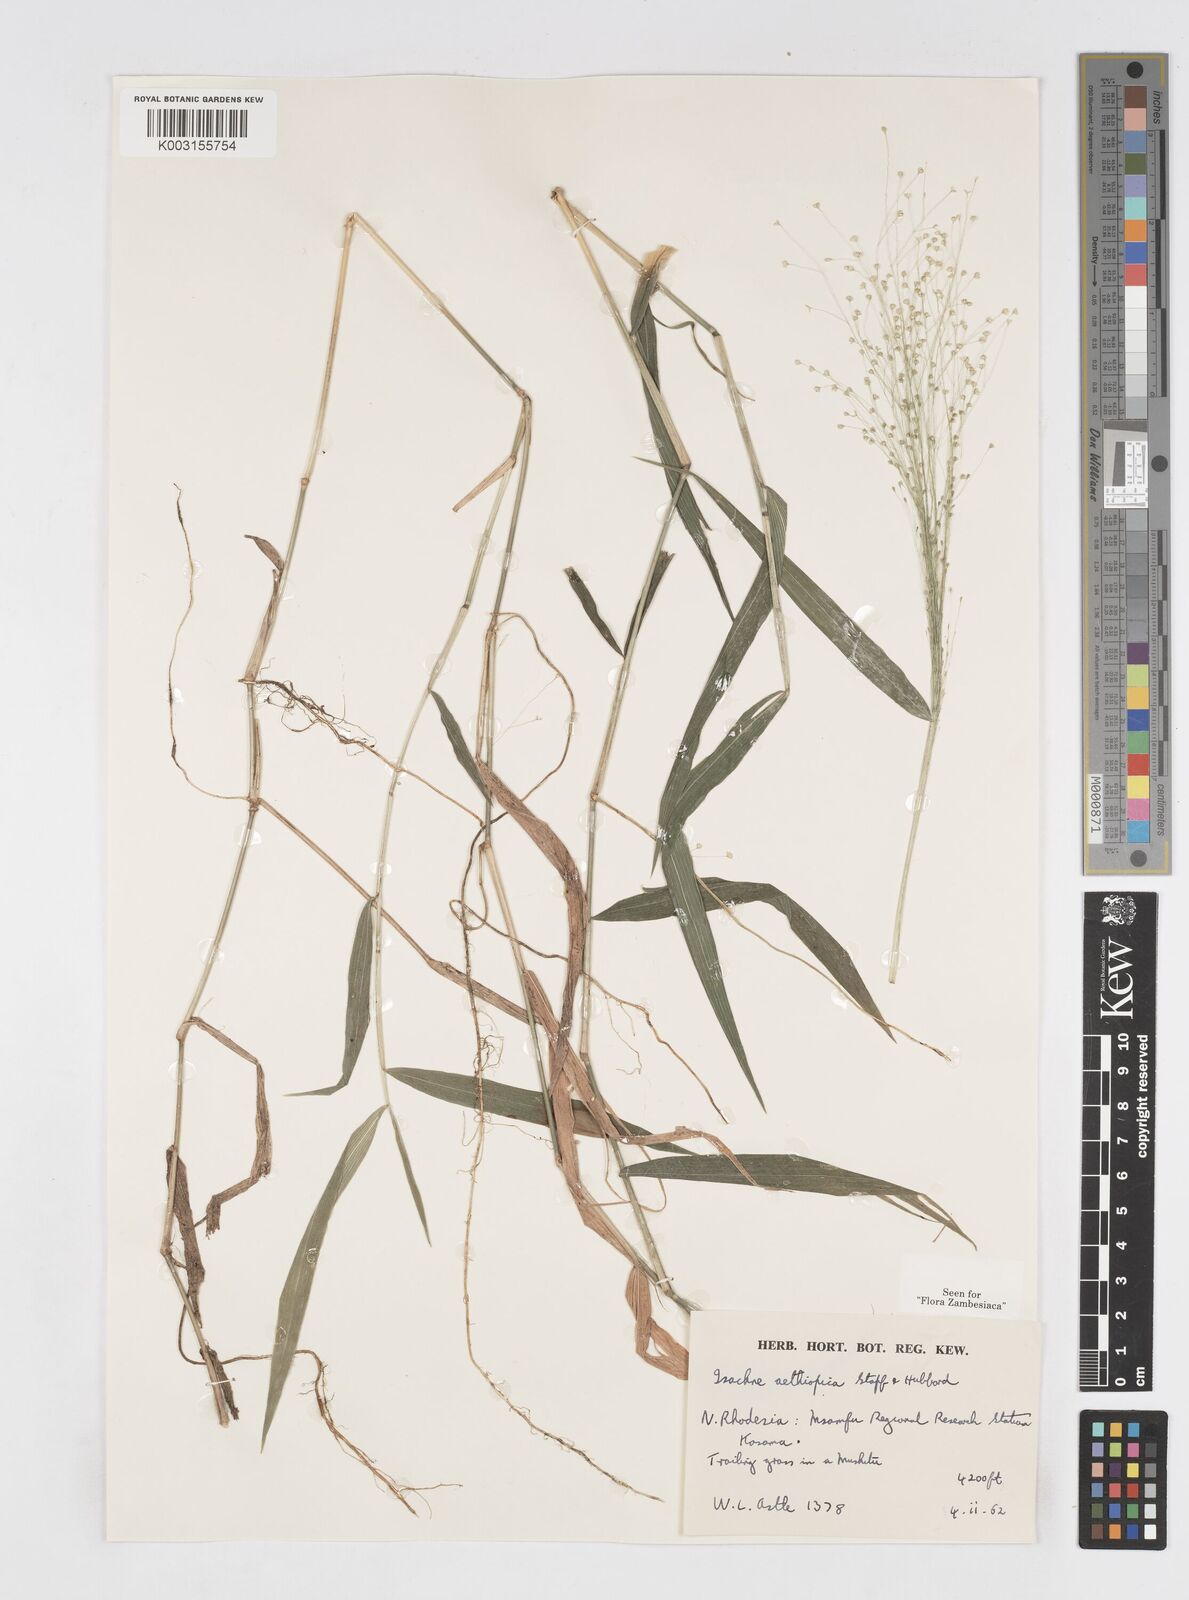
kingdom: Plantae
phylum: Tracheophyta
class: Liliopsida
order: Poales
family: Poaceae
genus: Isachne
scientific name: Isachne mauritiana
